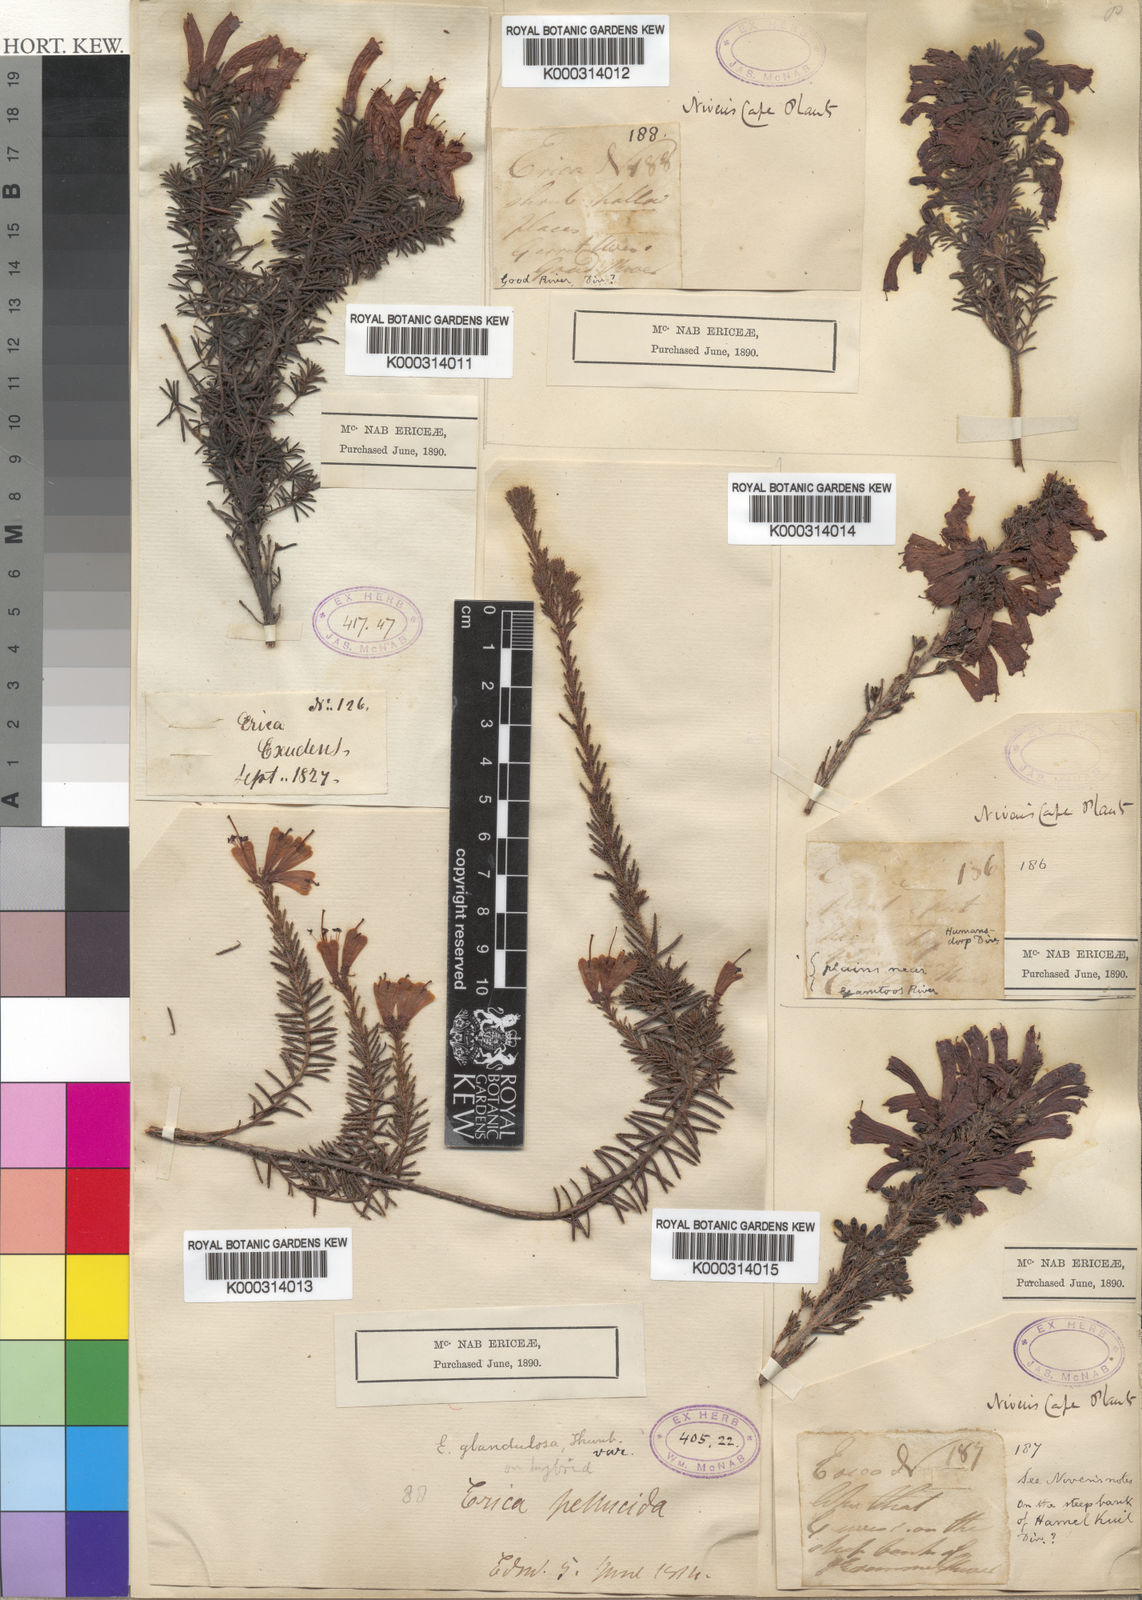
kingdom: Plantae
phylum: Tracheophyta
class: Magnoliopsida
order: Ericales
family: Ericaceae
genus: Erica
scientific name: Erica glandulosa
